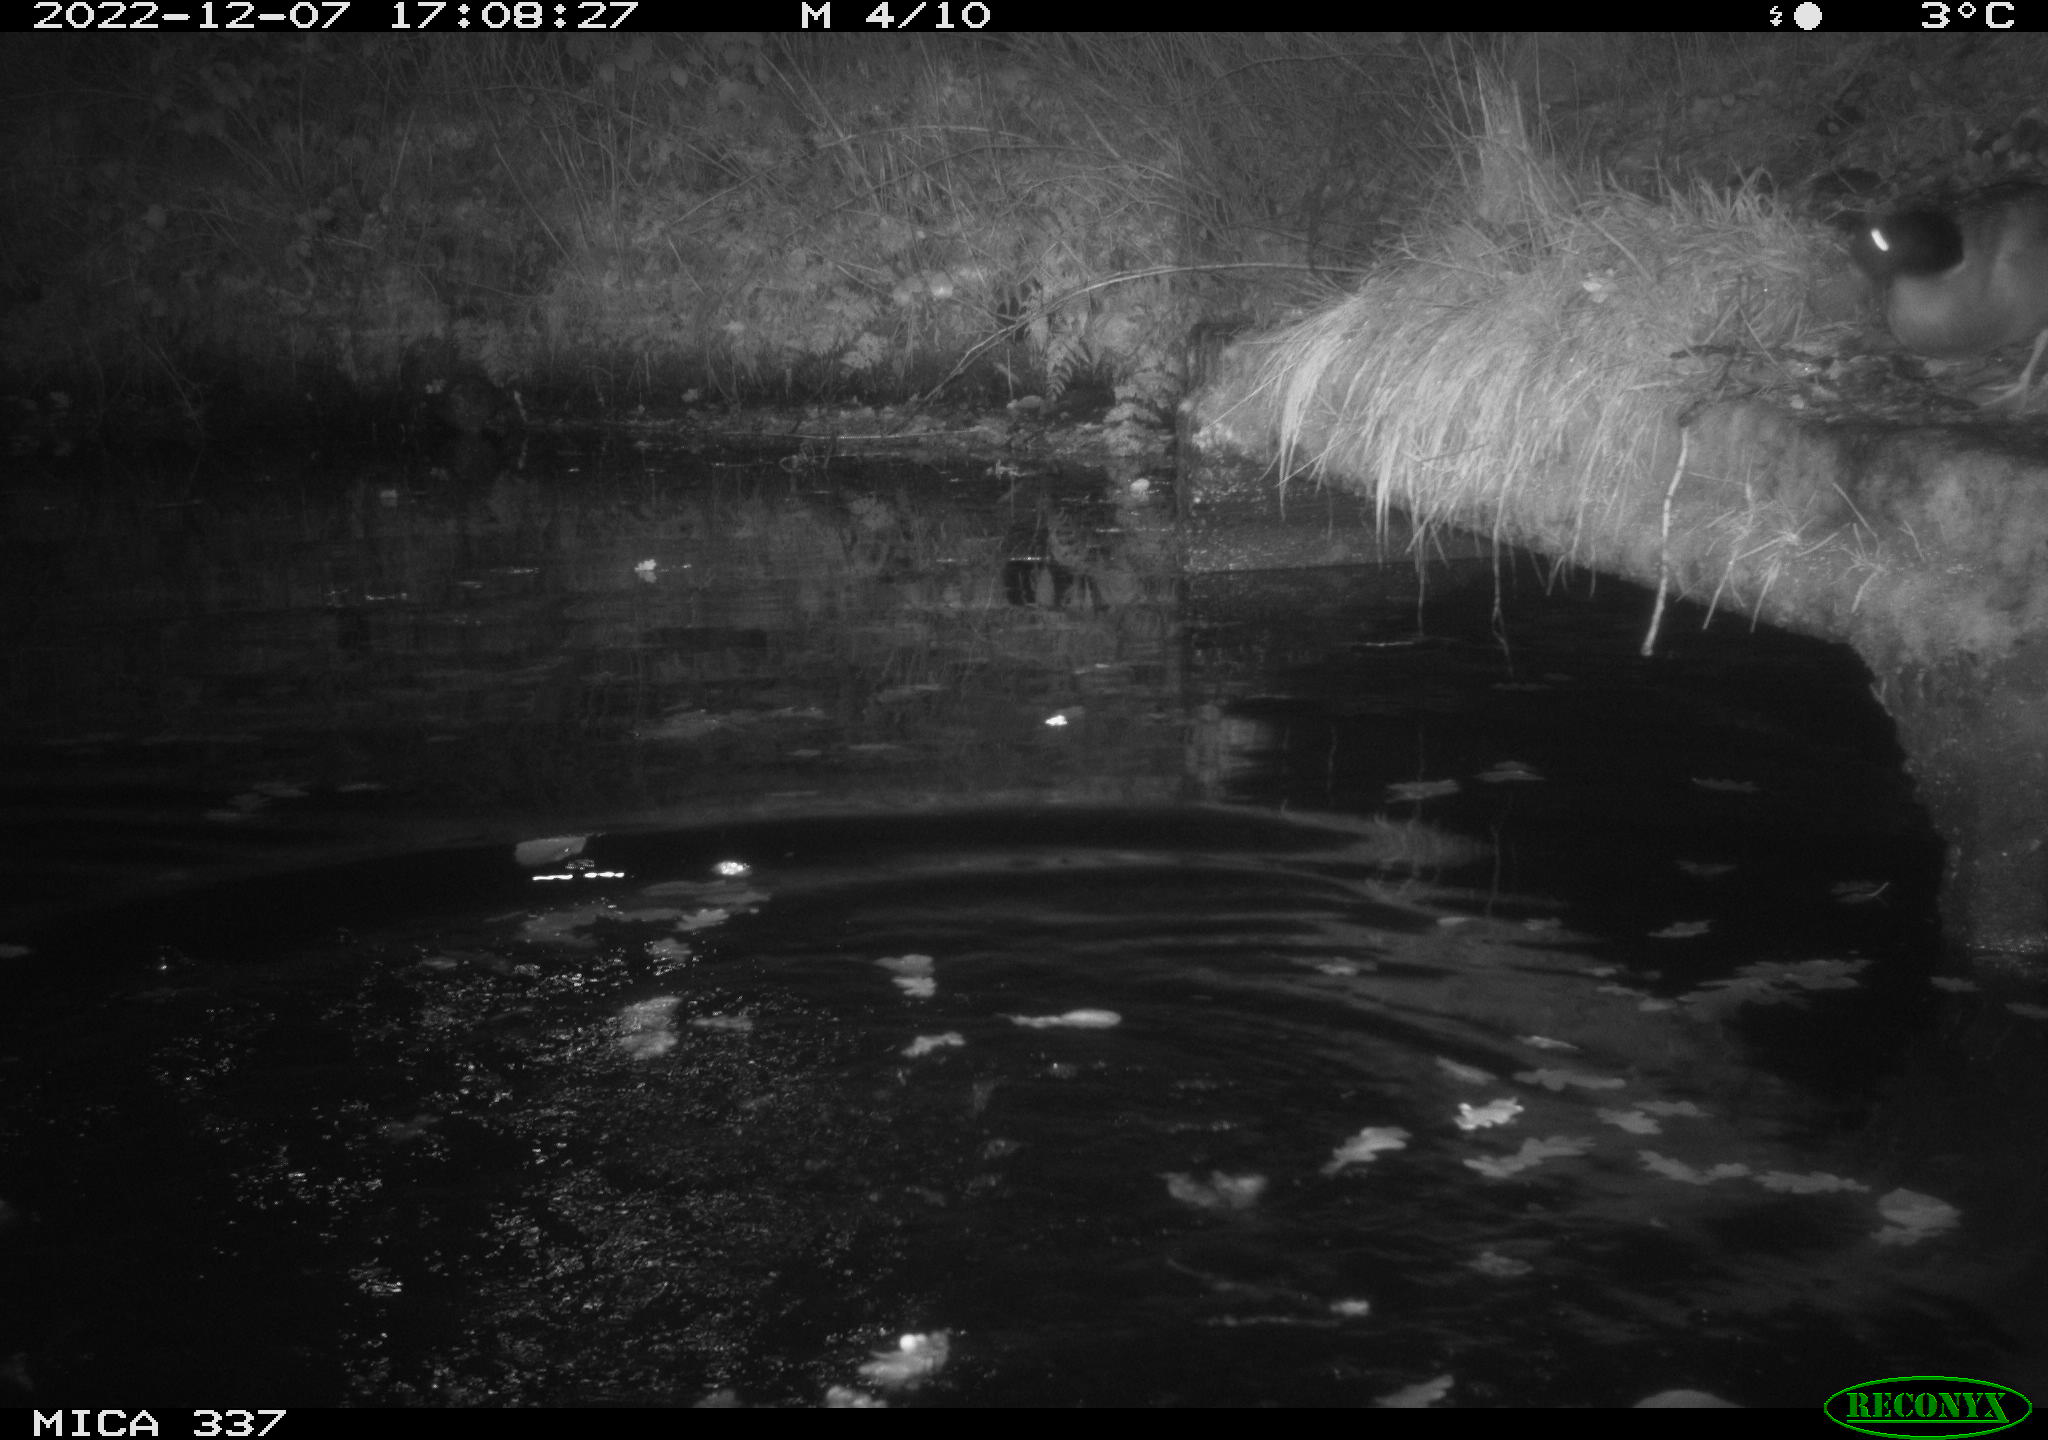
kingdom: Animalia
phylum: Chordata
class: Aves
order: Anseriformes
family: Anatidae
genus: Anas
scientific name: Anas
